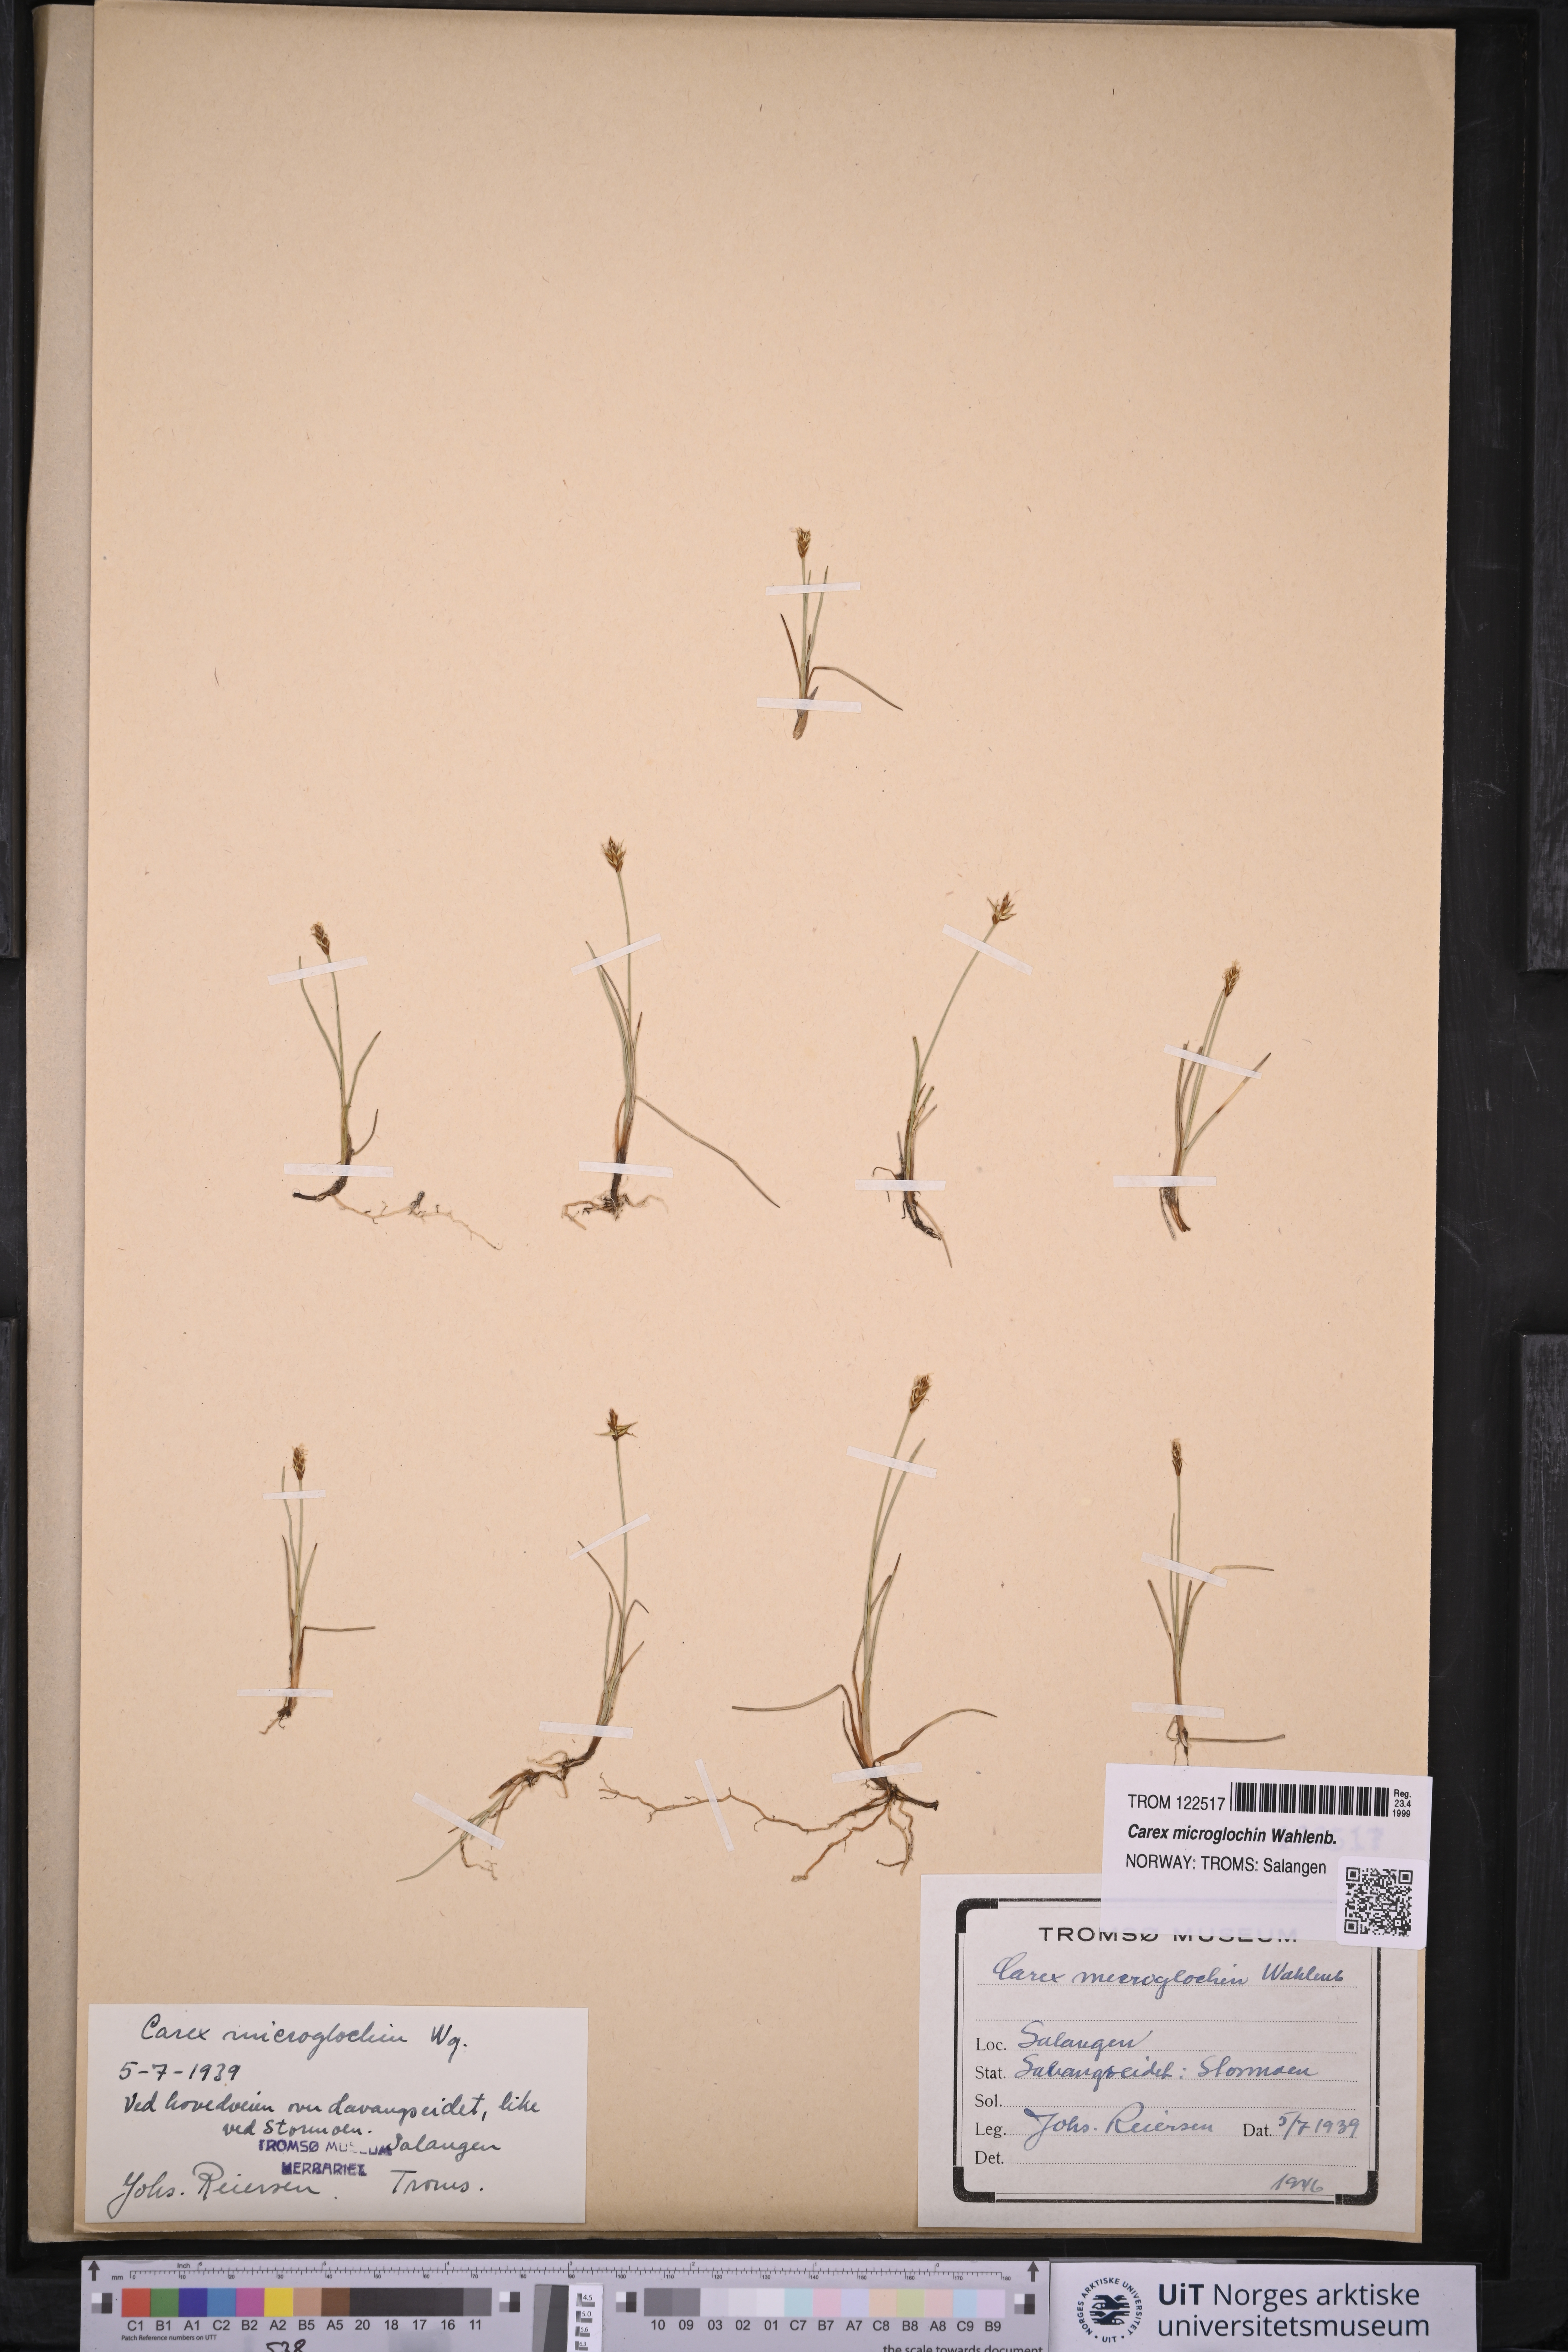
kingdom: Plantae
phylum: Tracheophyta
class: Liliopsida
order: Poales
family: Cyperaceae
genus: Carex
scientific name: Carex microglochin
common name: Bristle sedge
